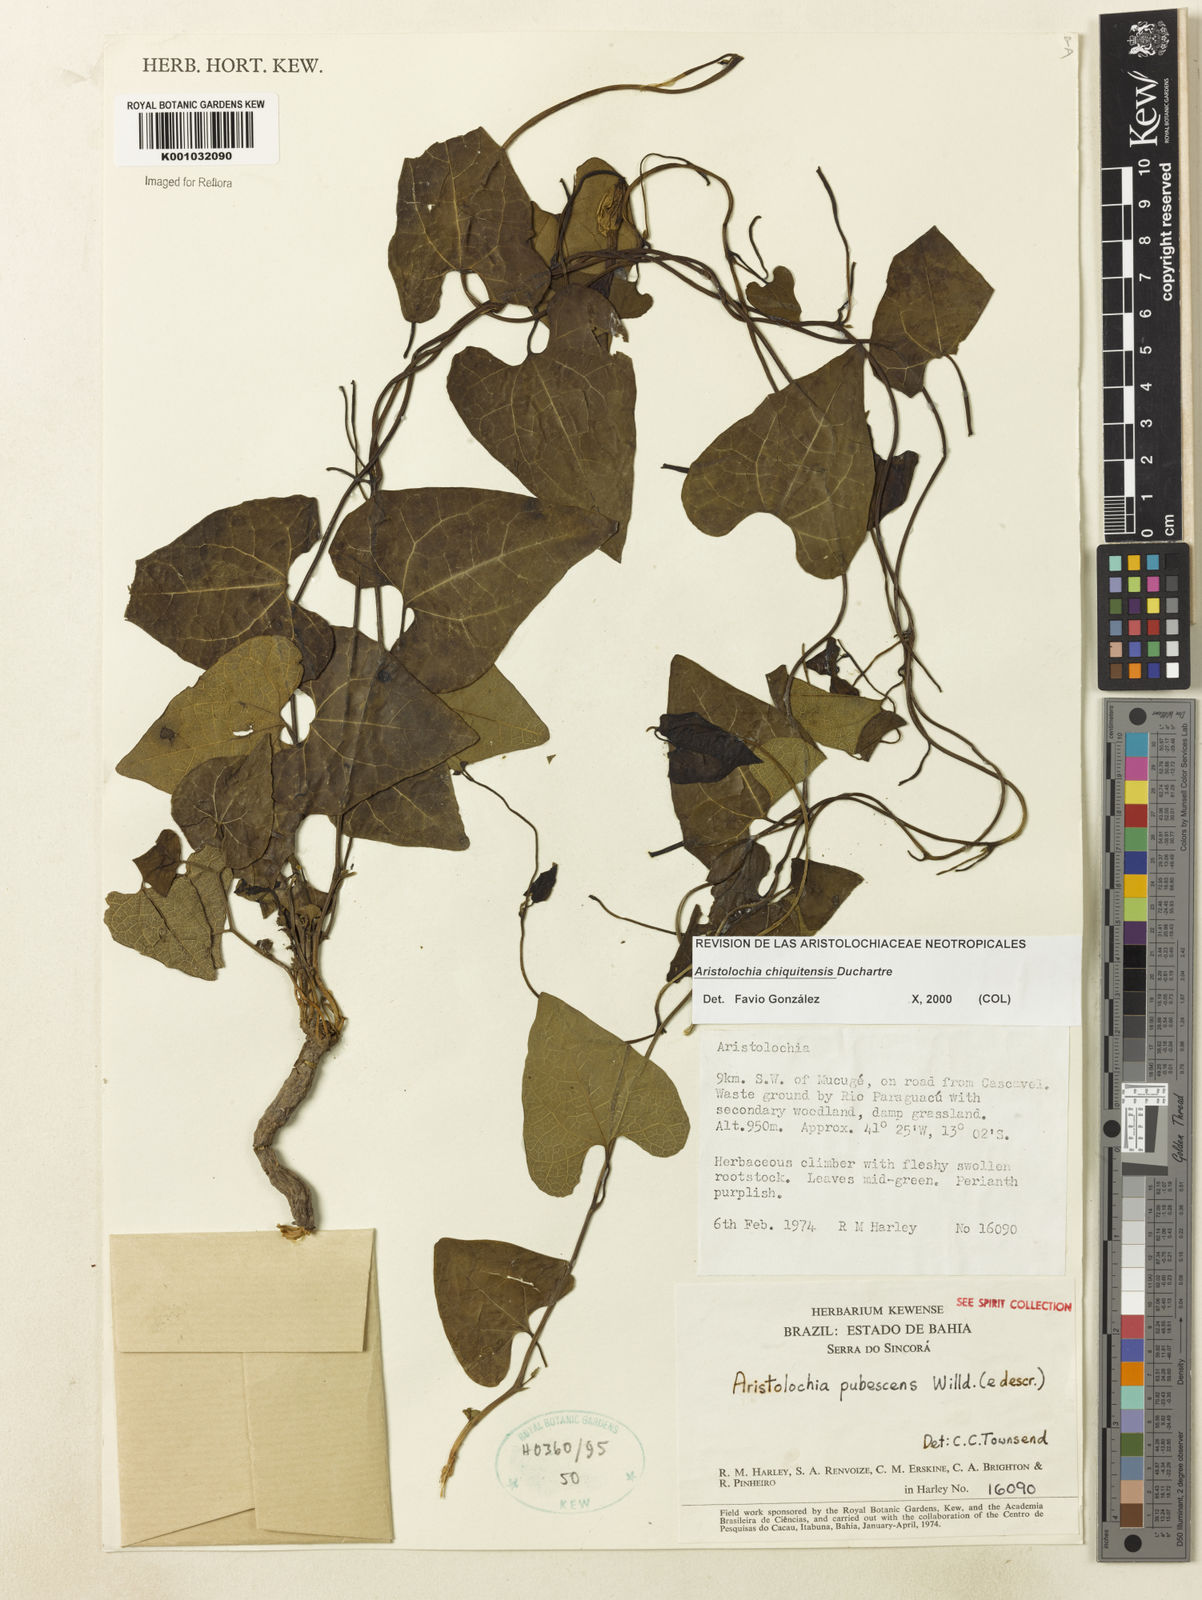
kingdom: Plantae
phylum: Tracheophyta
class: Magnoliopsida
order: Piperales
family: Aristolochiaceae
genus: Aristolochia
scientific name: Aristolochia chiquitensis
